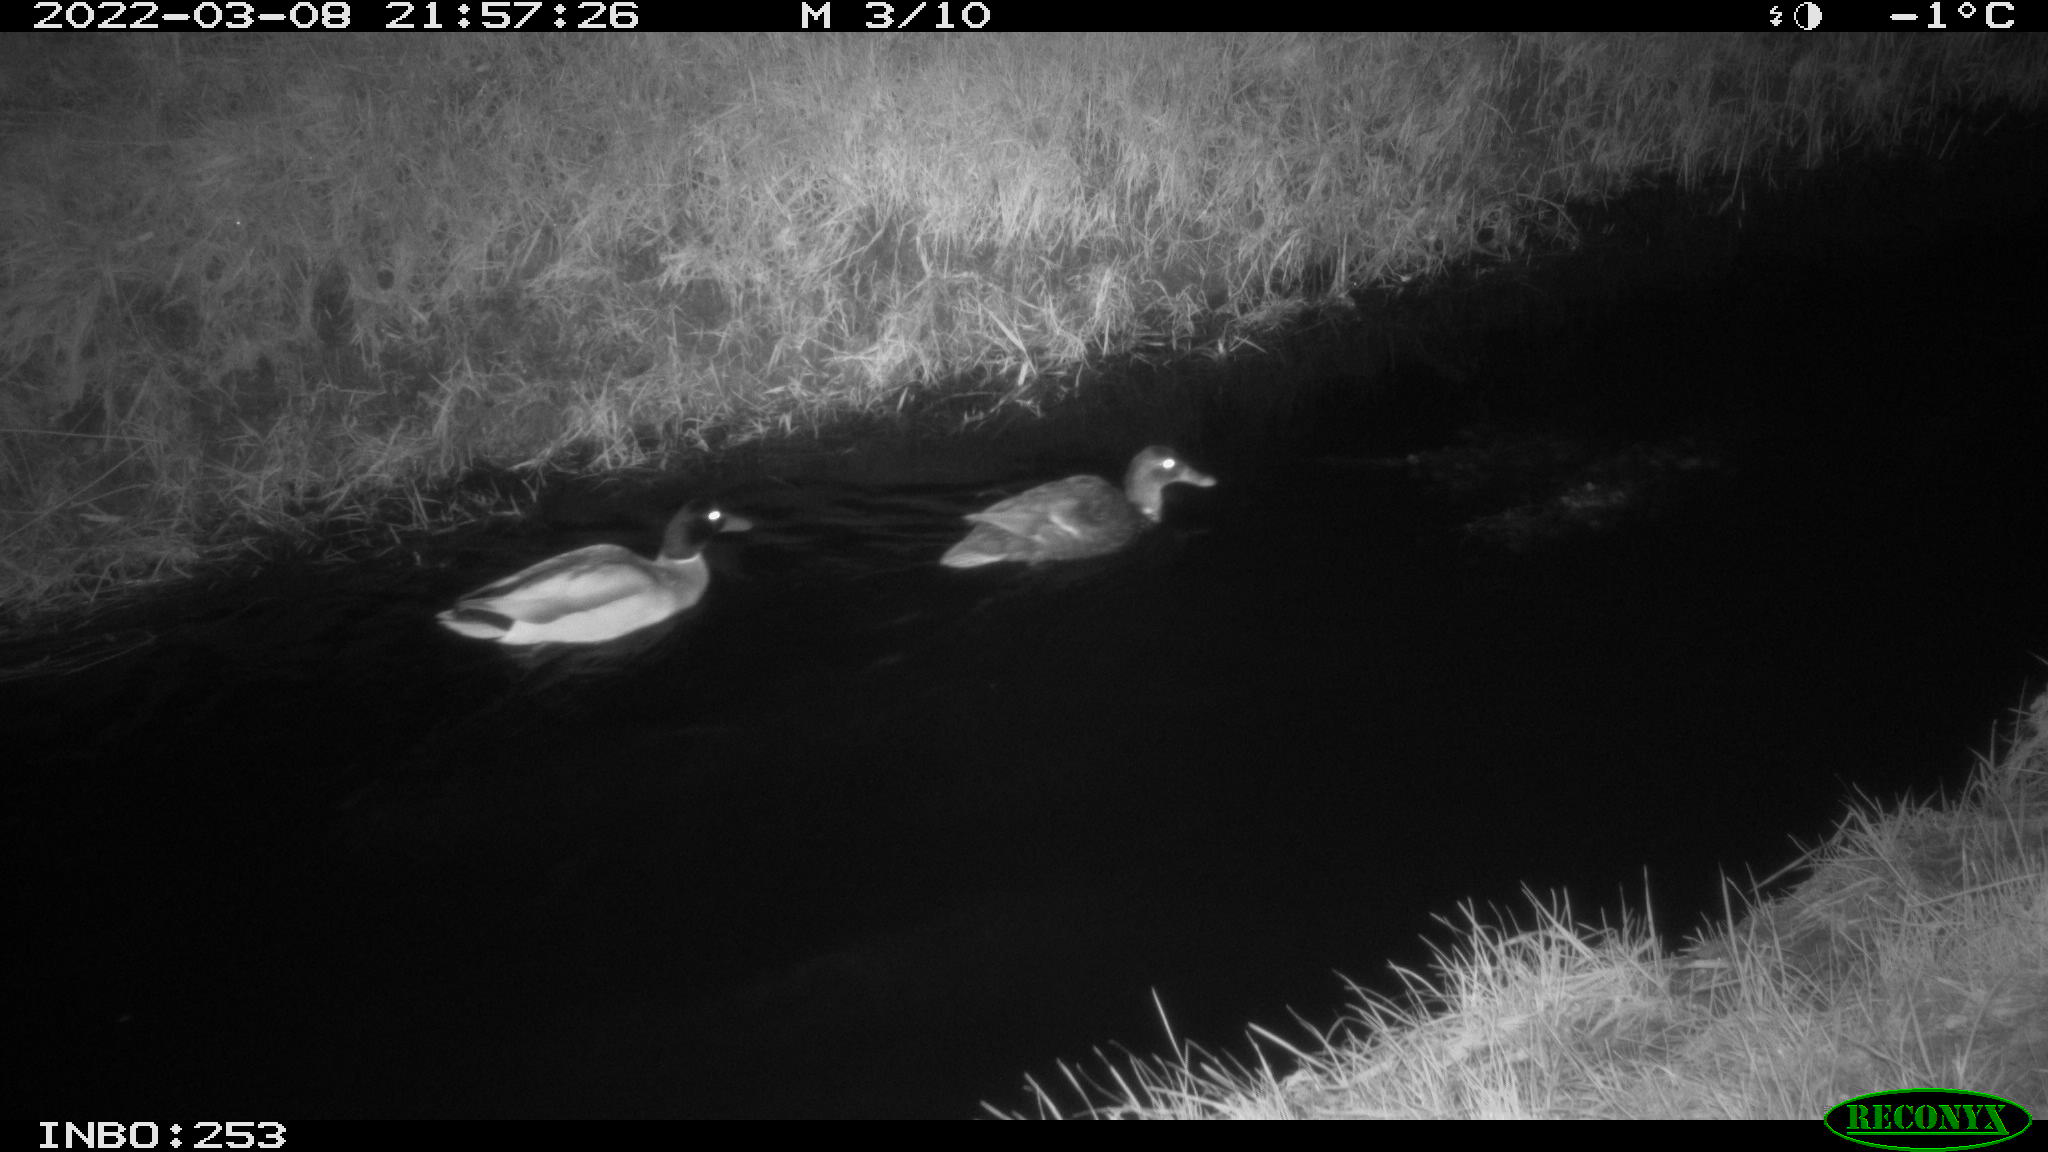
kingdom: Animalia
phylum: Chordata
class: Aves
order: Anseriformes
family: Anatidae
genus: Anas
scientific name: Anas platyrhynchos
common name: Mallard
